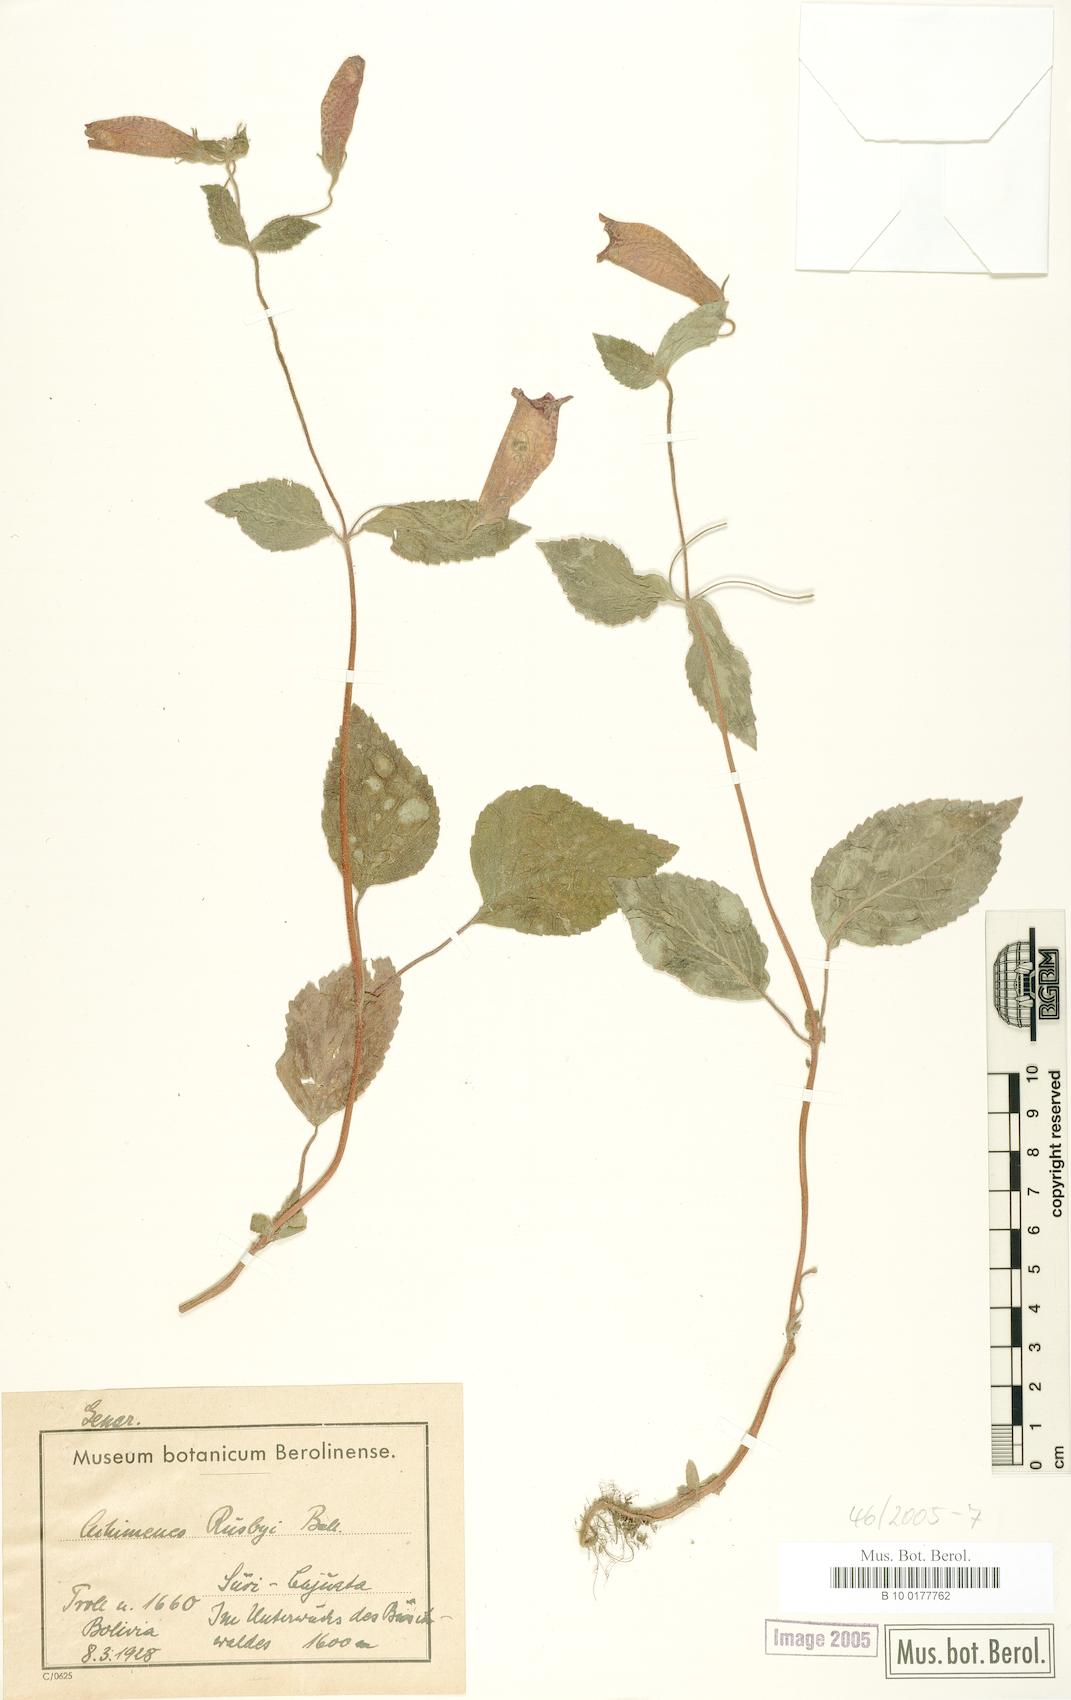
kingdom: Plantae
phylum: Tracheophyta
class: Magnoliopsida
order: Lamiales
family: Gesneriaceae
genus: Achimenes
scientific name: Achimenes rusbyi
